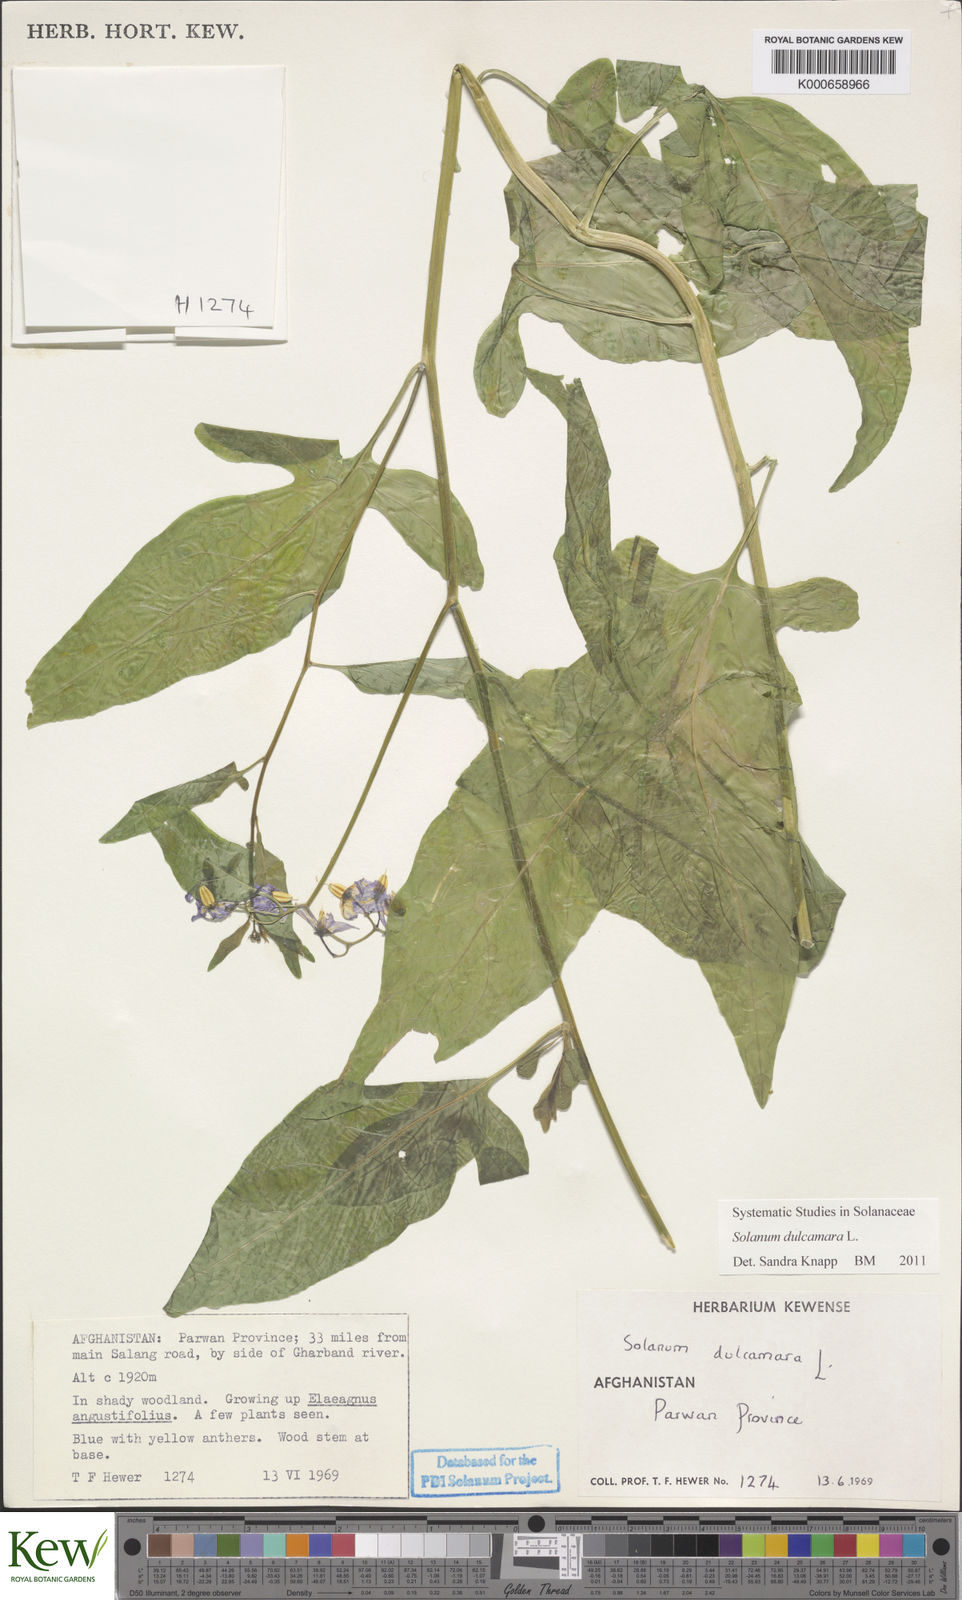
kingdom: Plantae
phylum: Tracheophyta
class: Magnoliopsida
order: Solanales
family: Solanaceae
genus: Solanum
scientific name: Solanum dulcamara
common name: Climbing nightshade
